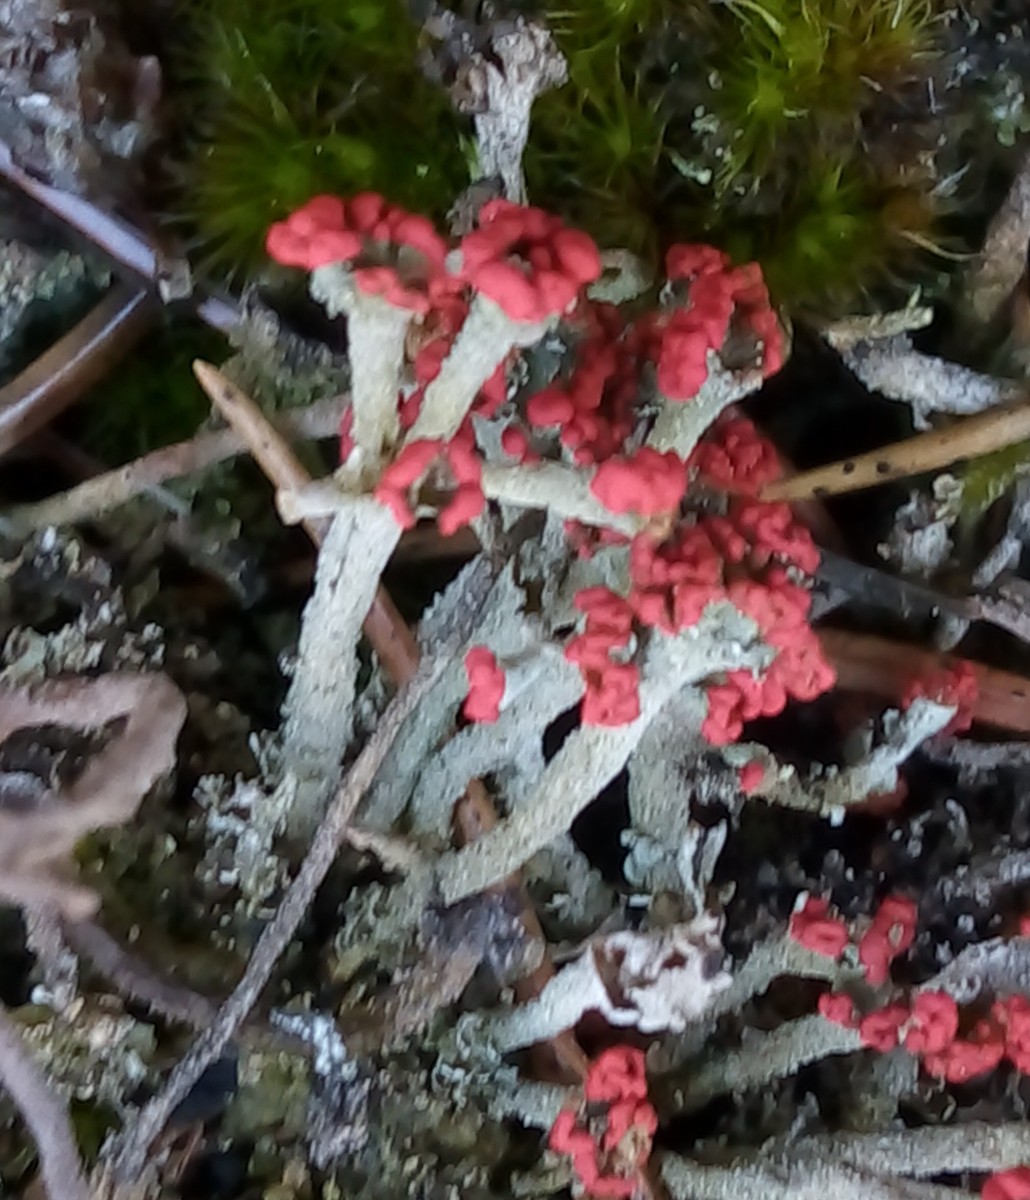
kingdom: Fungi
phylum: Ascomycota
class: Lecanoromycetes
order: Lecanorales
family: Cladoniaceae
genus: Cladonia
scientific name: Cladonia floerkeana
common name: lakrød bægerlav
